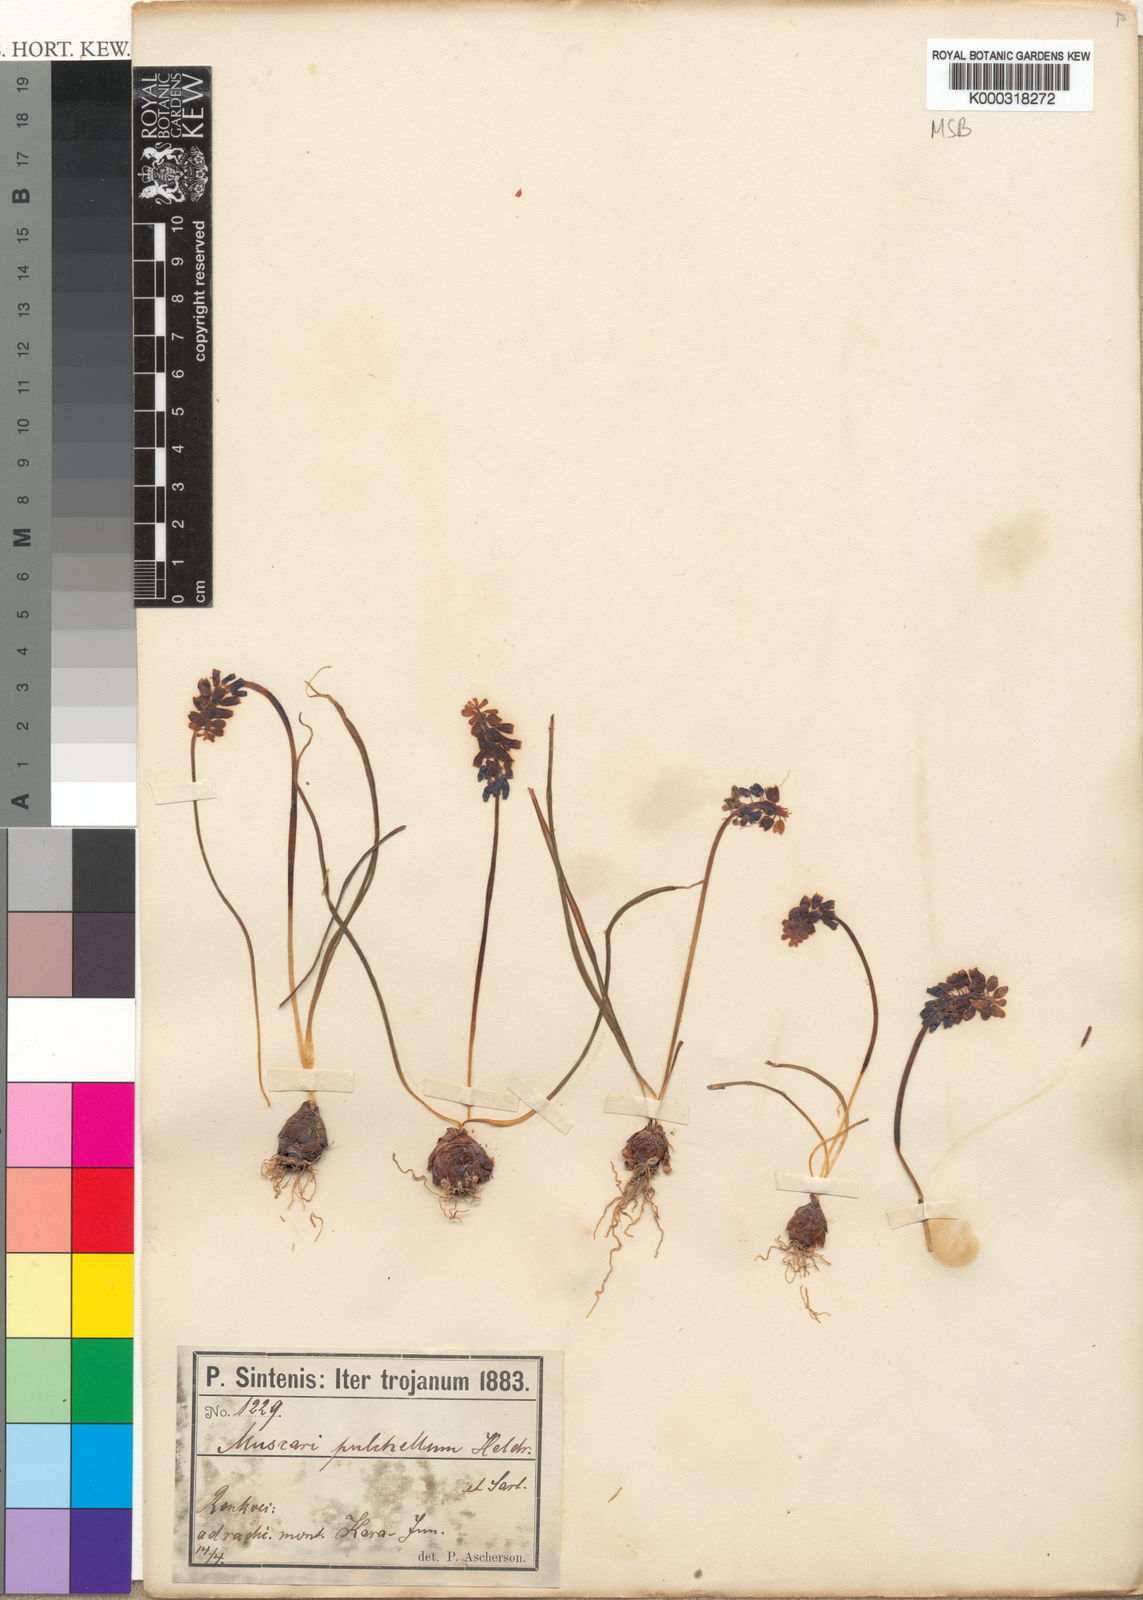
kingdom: Plantae
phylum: Tracheophyta
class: Liliopsida
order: Asparagales
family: Asparagaceae
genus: Muscari
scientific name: Muscari neglectum
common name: Grape-hyacinth
